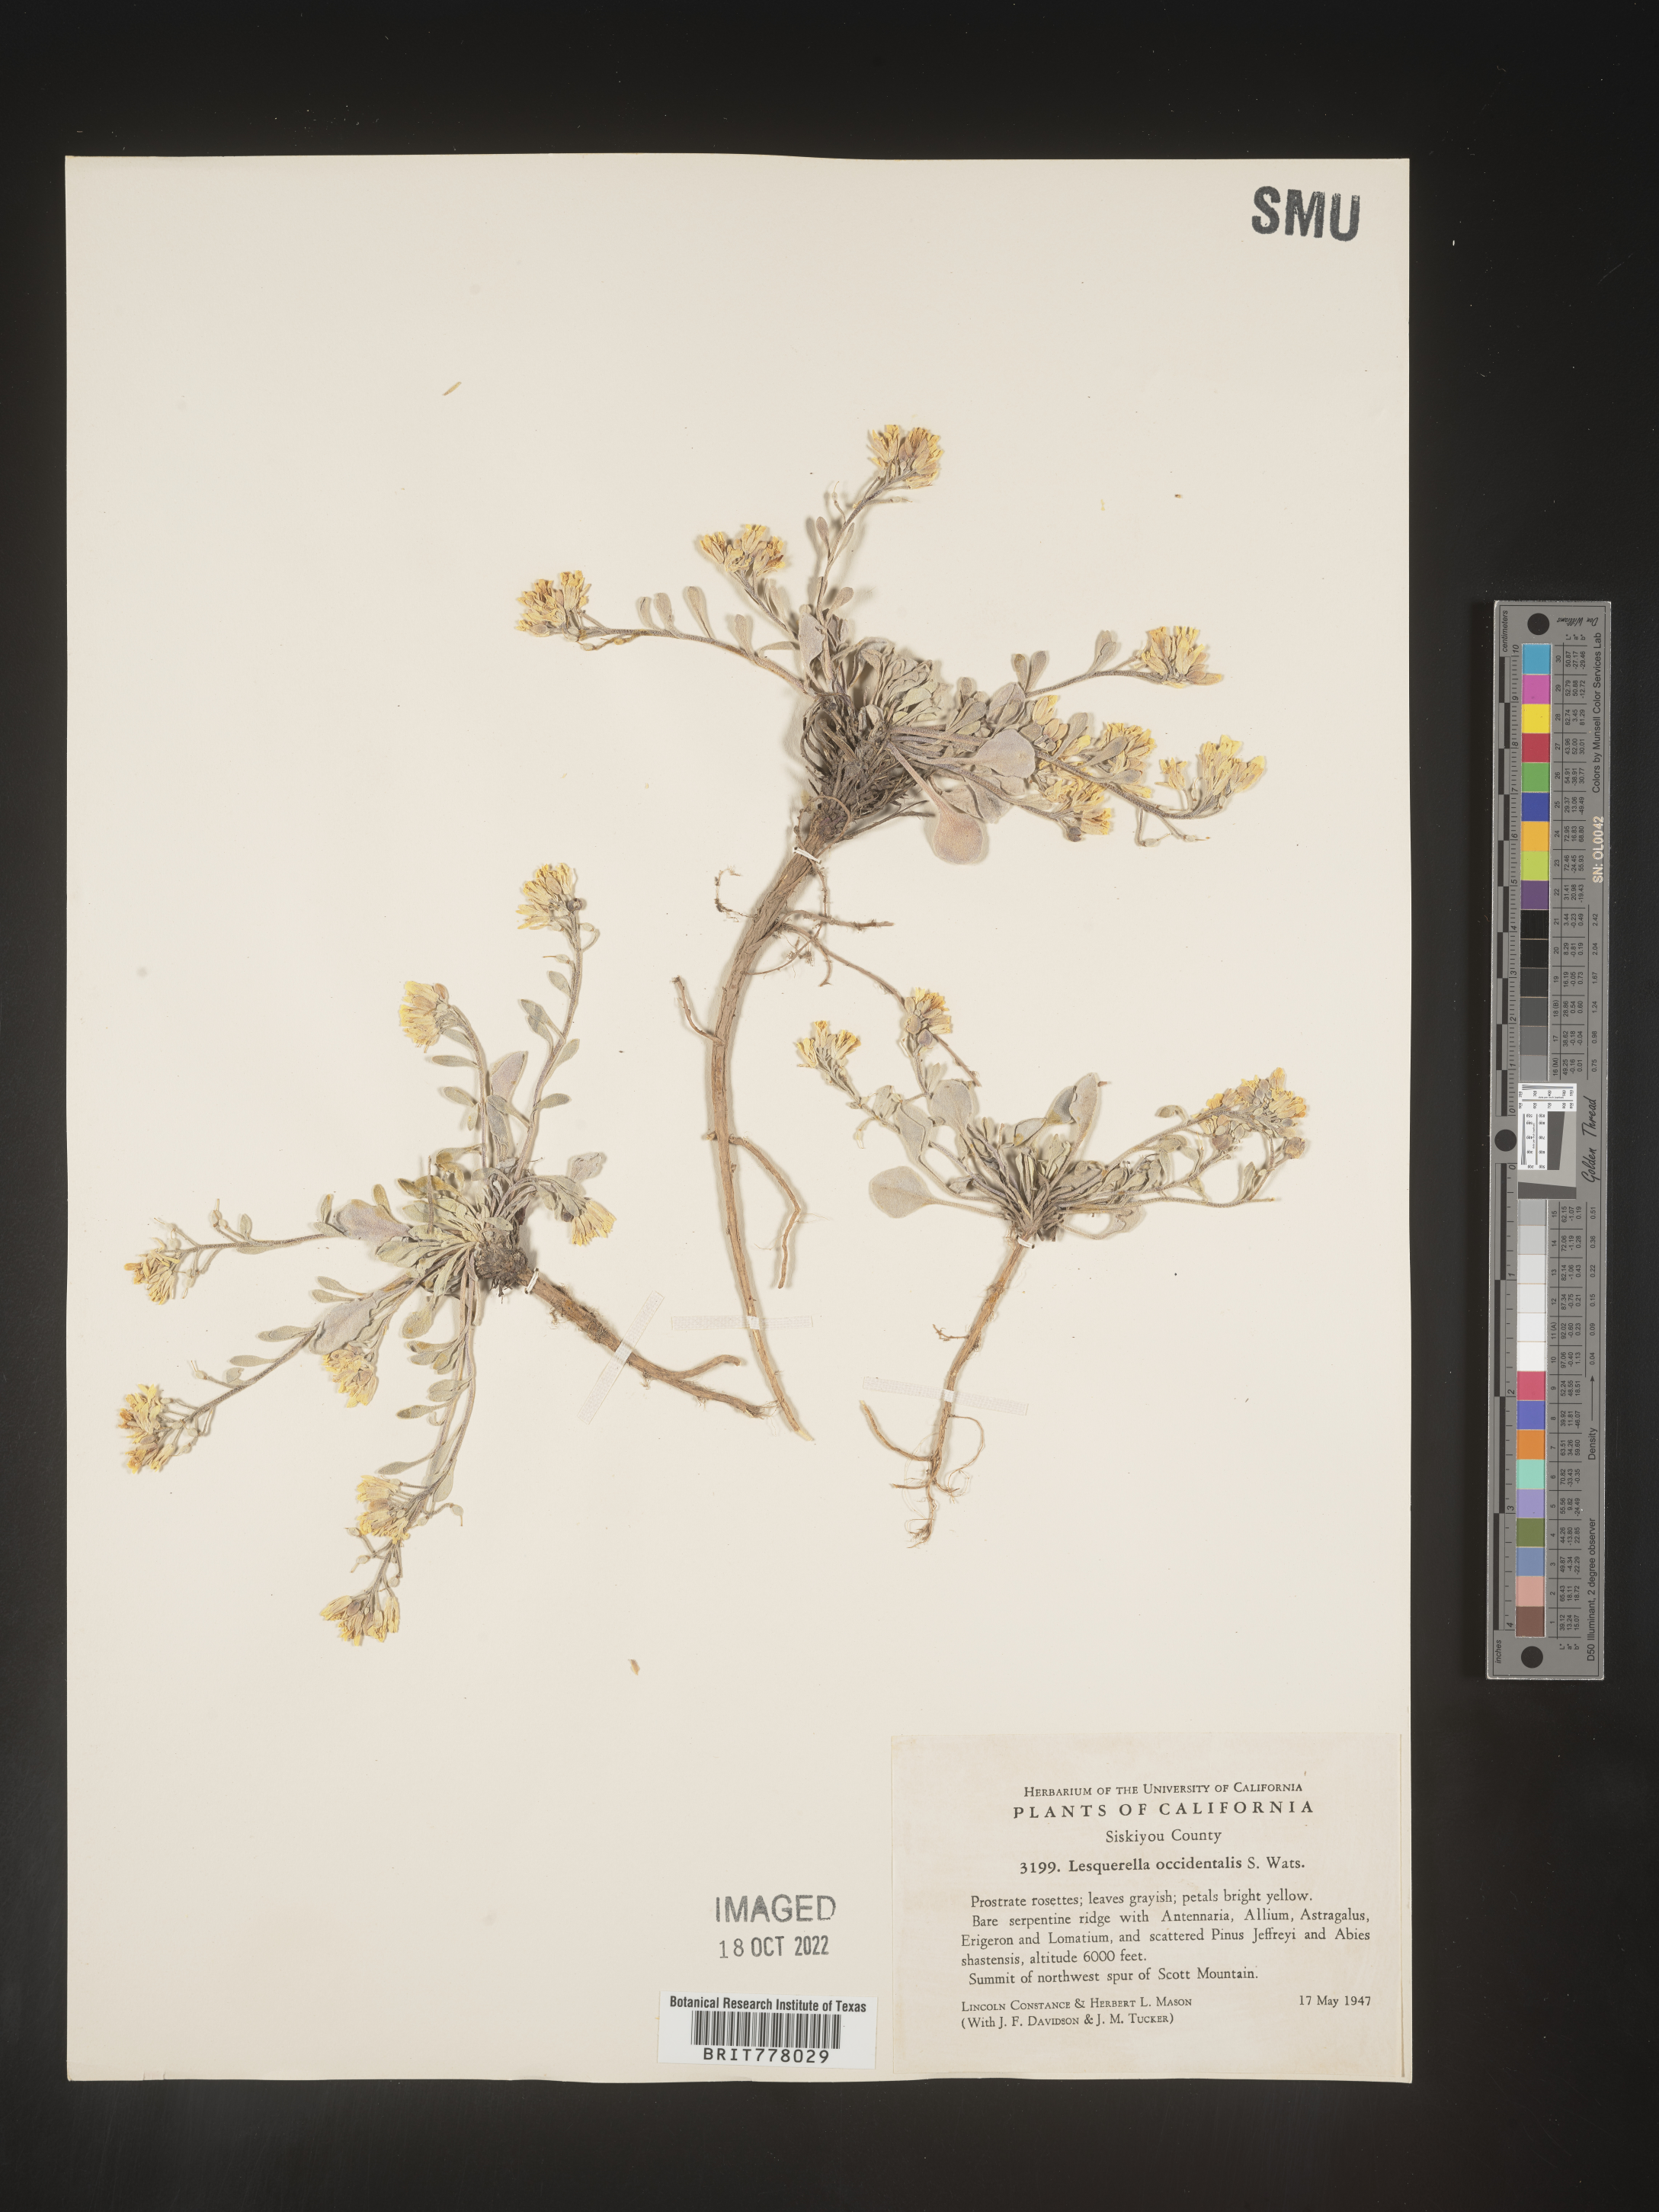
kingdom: Chromista
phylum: Cercozoa
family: Psammonobiotidae
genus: Lesquerella
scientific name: Lesquerella
